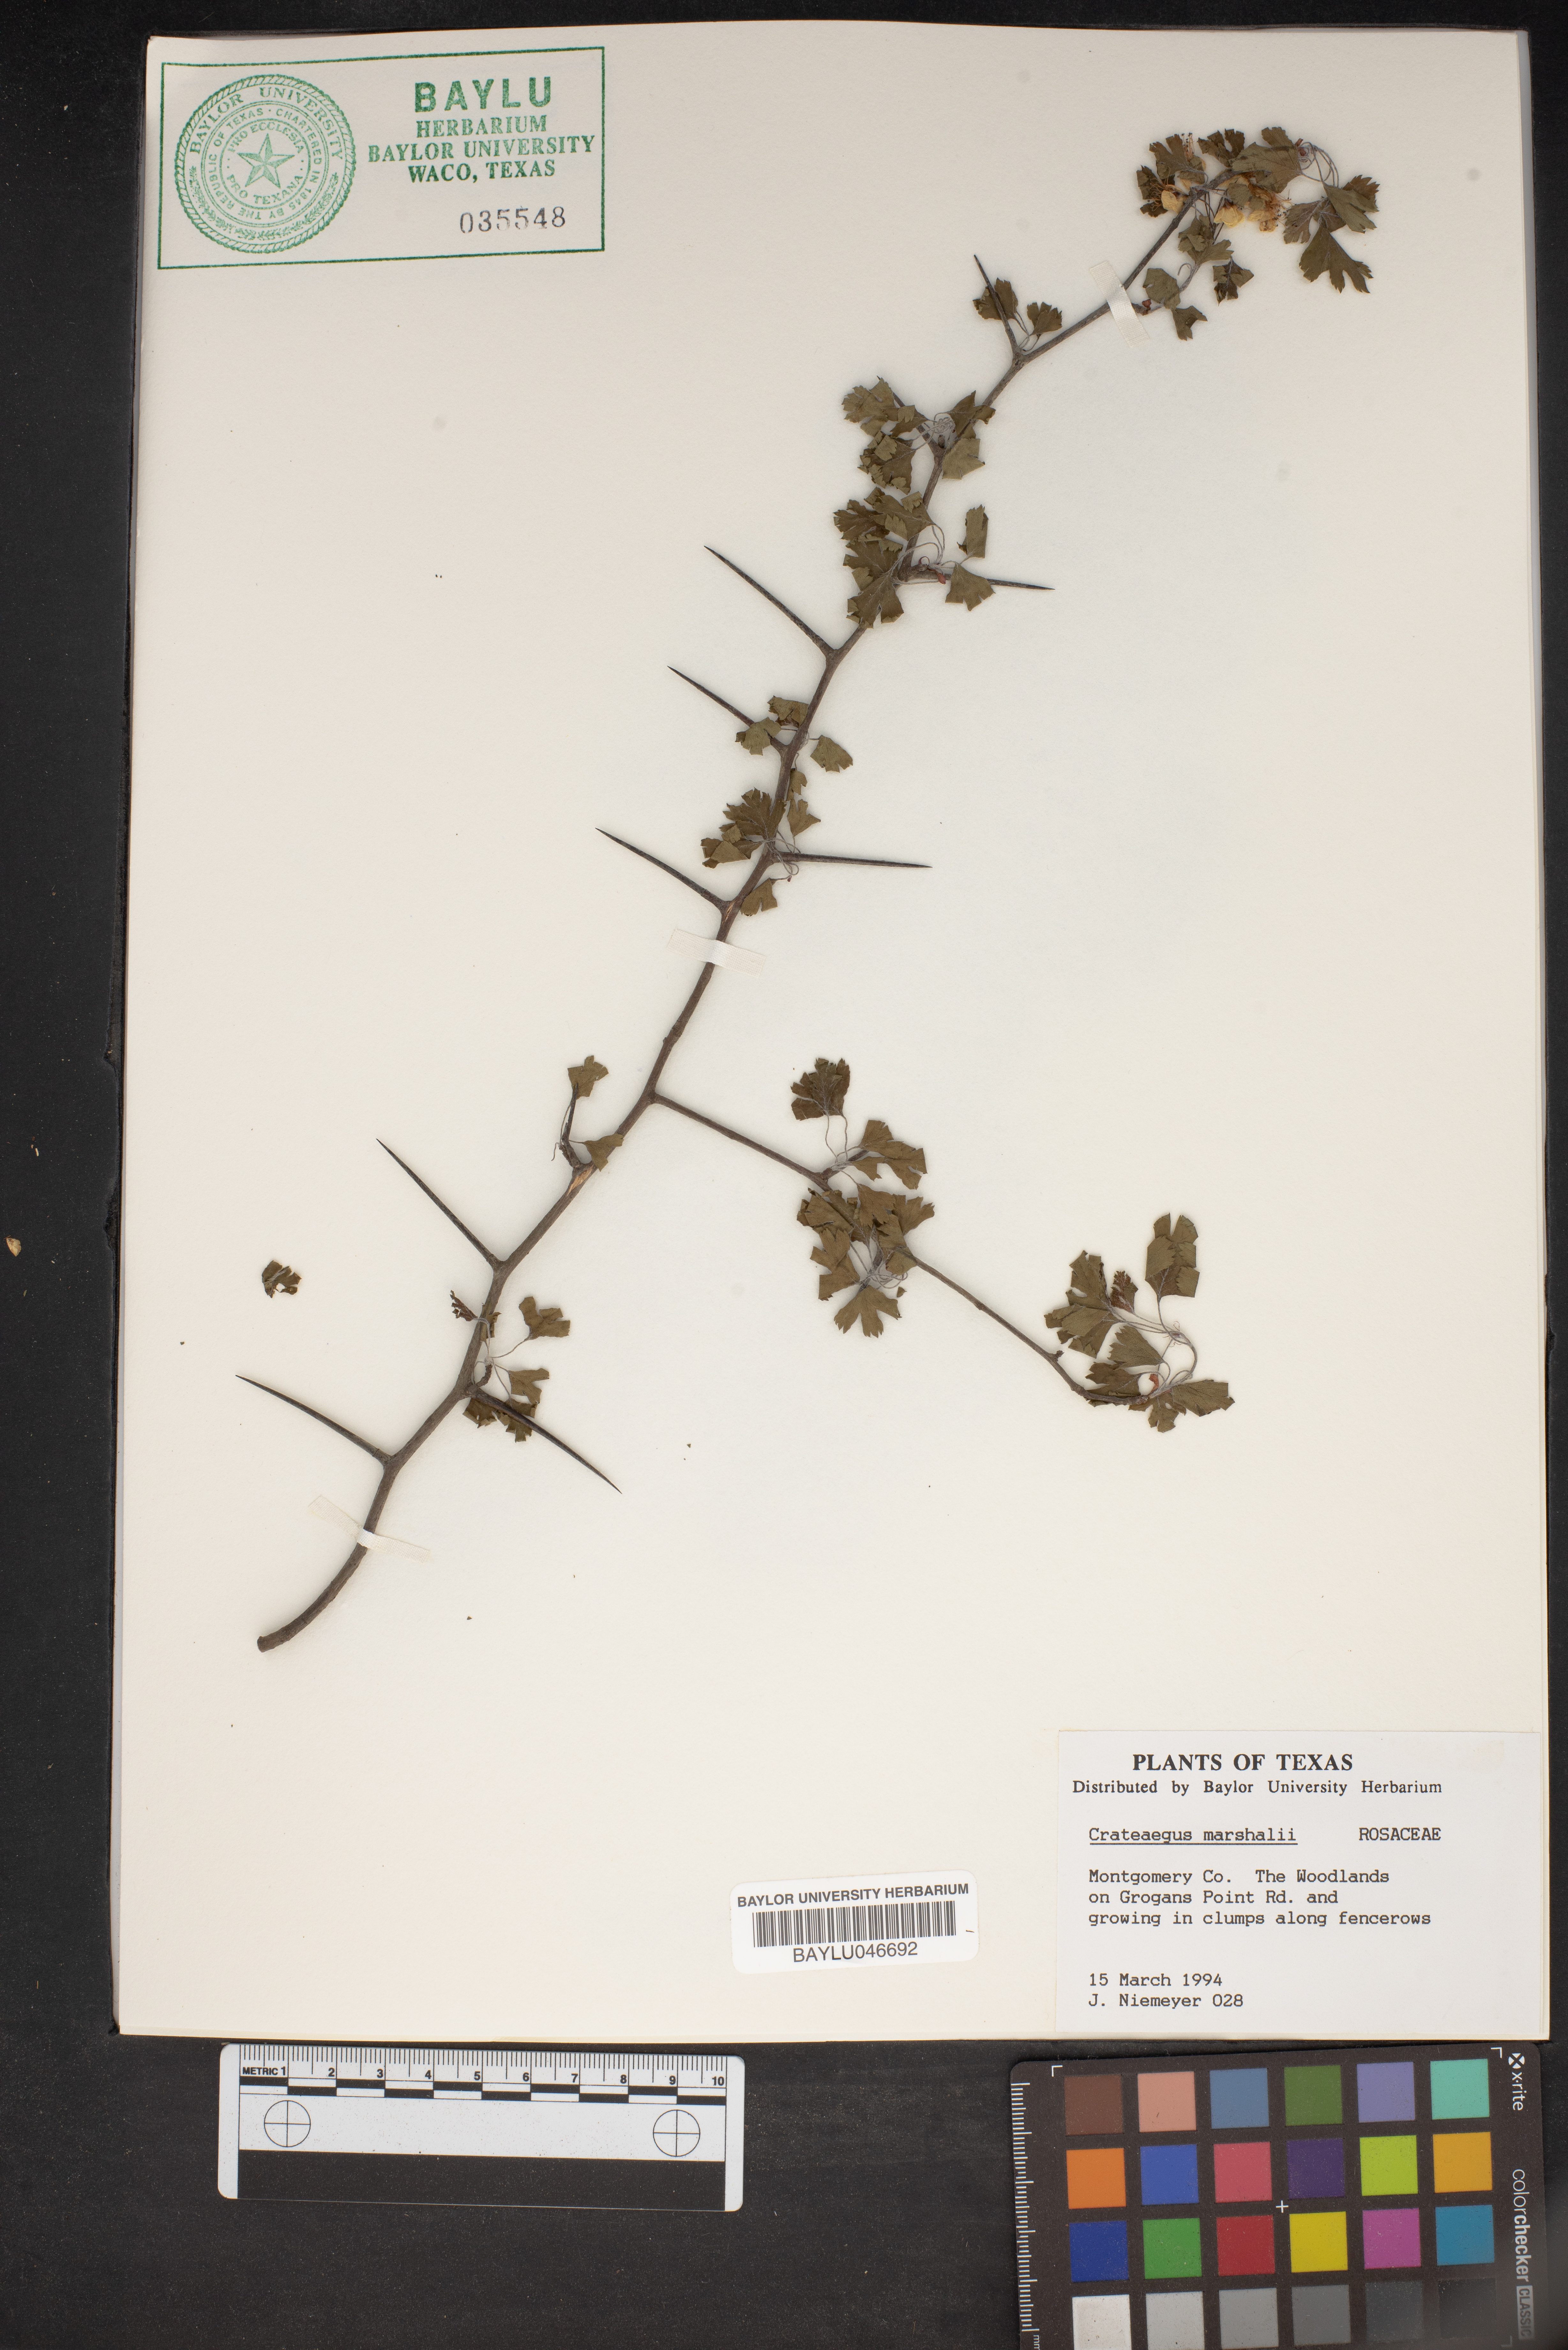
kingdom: Plantae
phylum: Tracheophyta
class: Magnoliopsida
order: Rosales
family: Rosaceae
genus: Crataegus
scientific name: Crataegus marshallii
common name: Parsley-hawthorn
